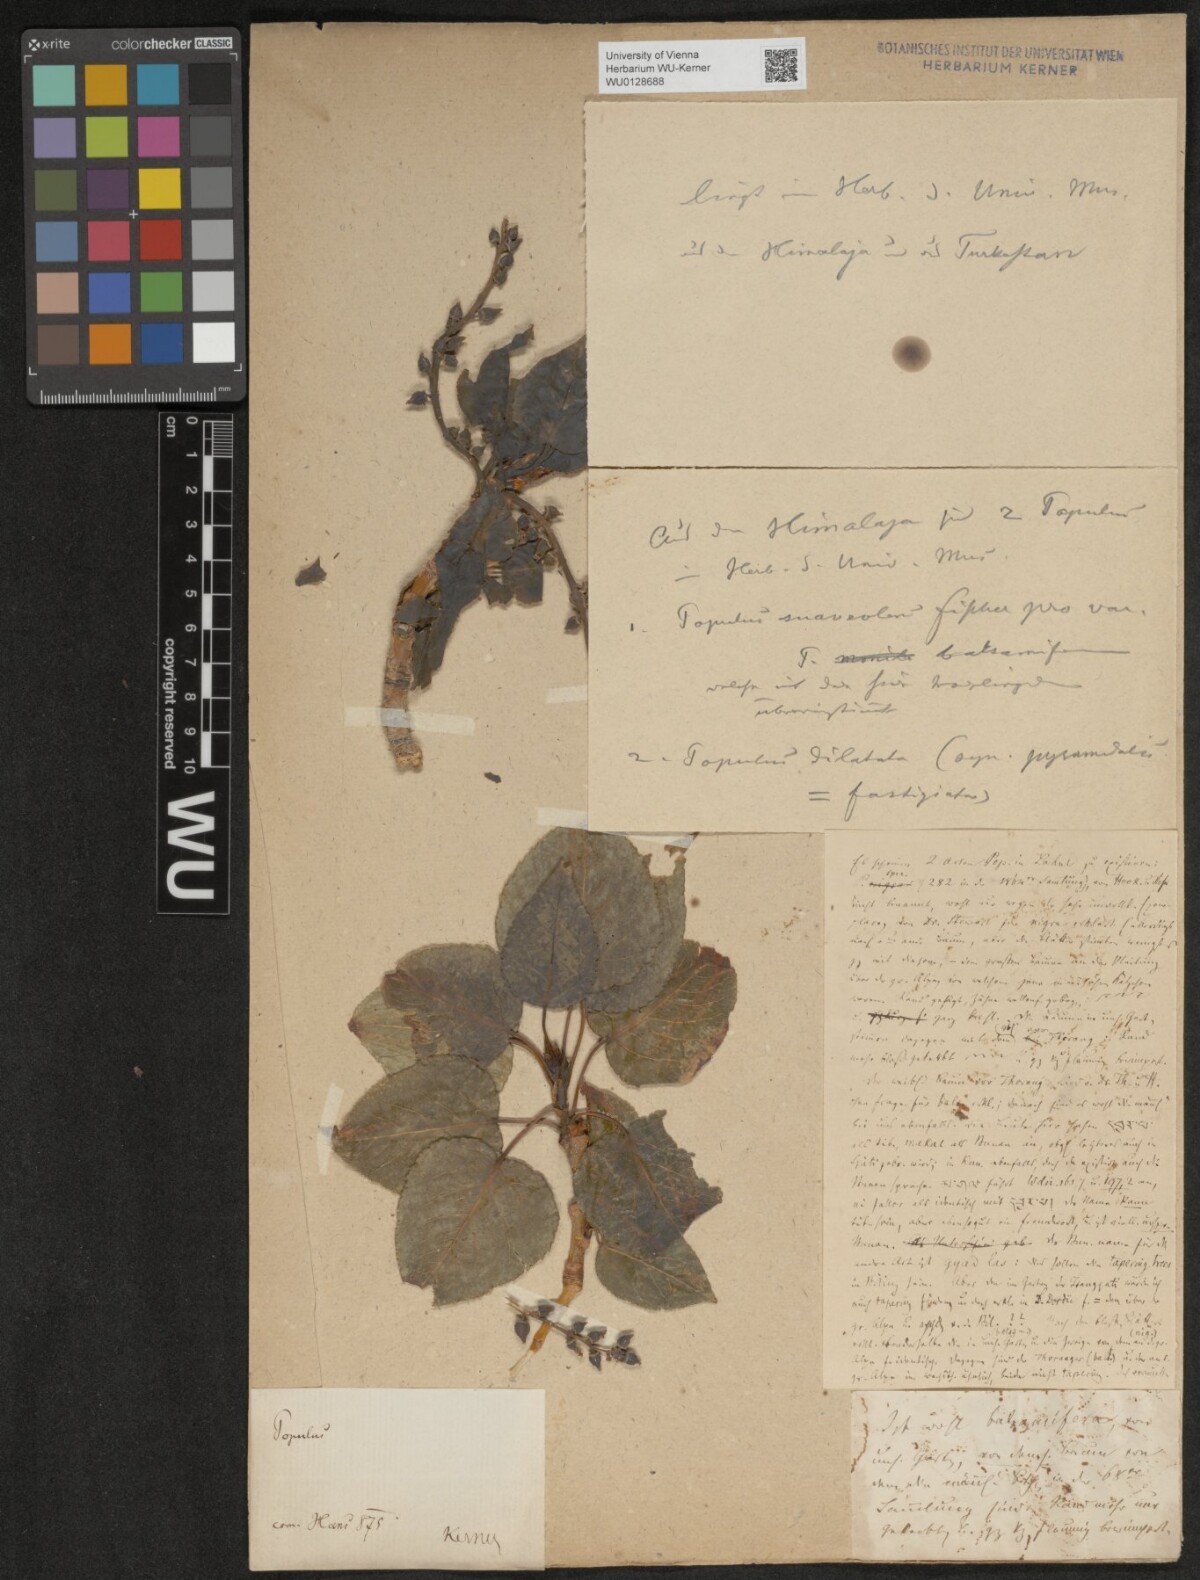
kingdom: Plantae
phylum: Tracheophyta
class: Magnoliopsida
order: Malpighiales
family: Salicaceae
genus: Populus
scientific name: Populus balsamifera
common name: Balsam poplar
